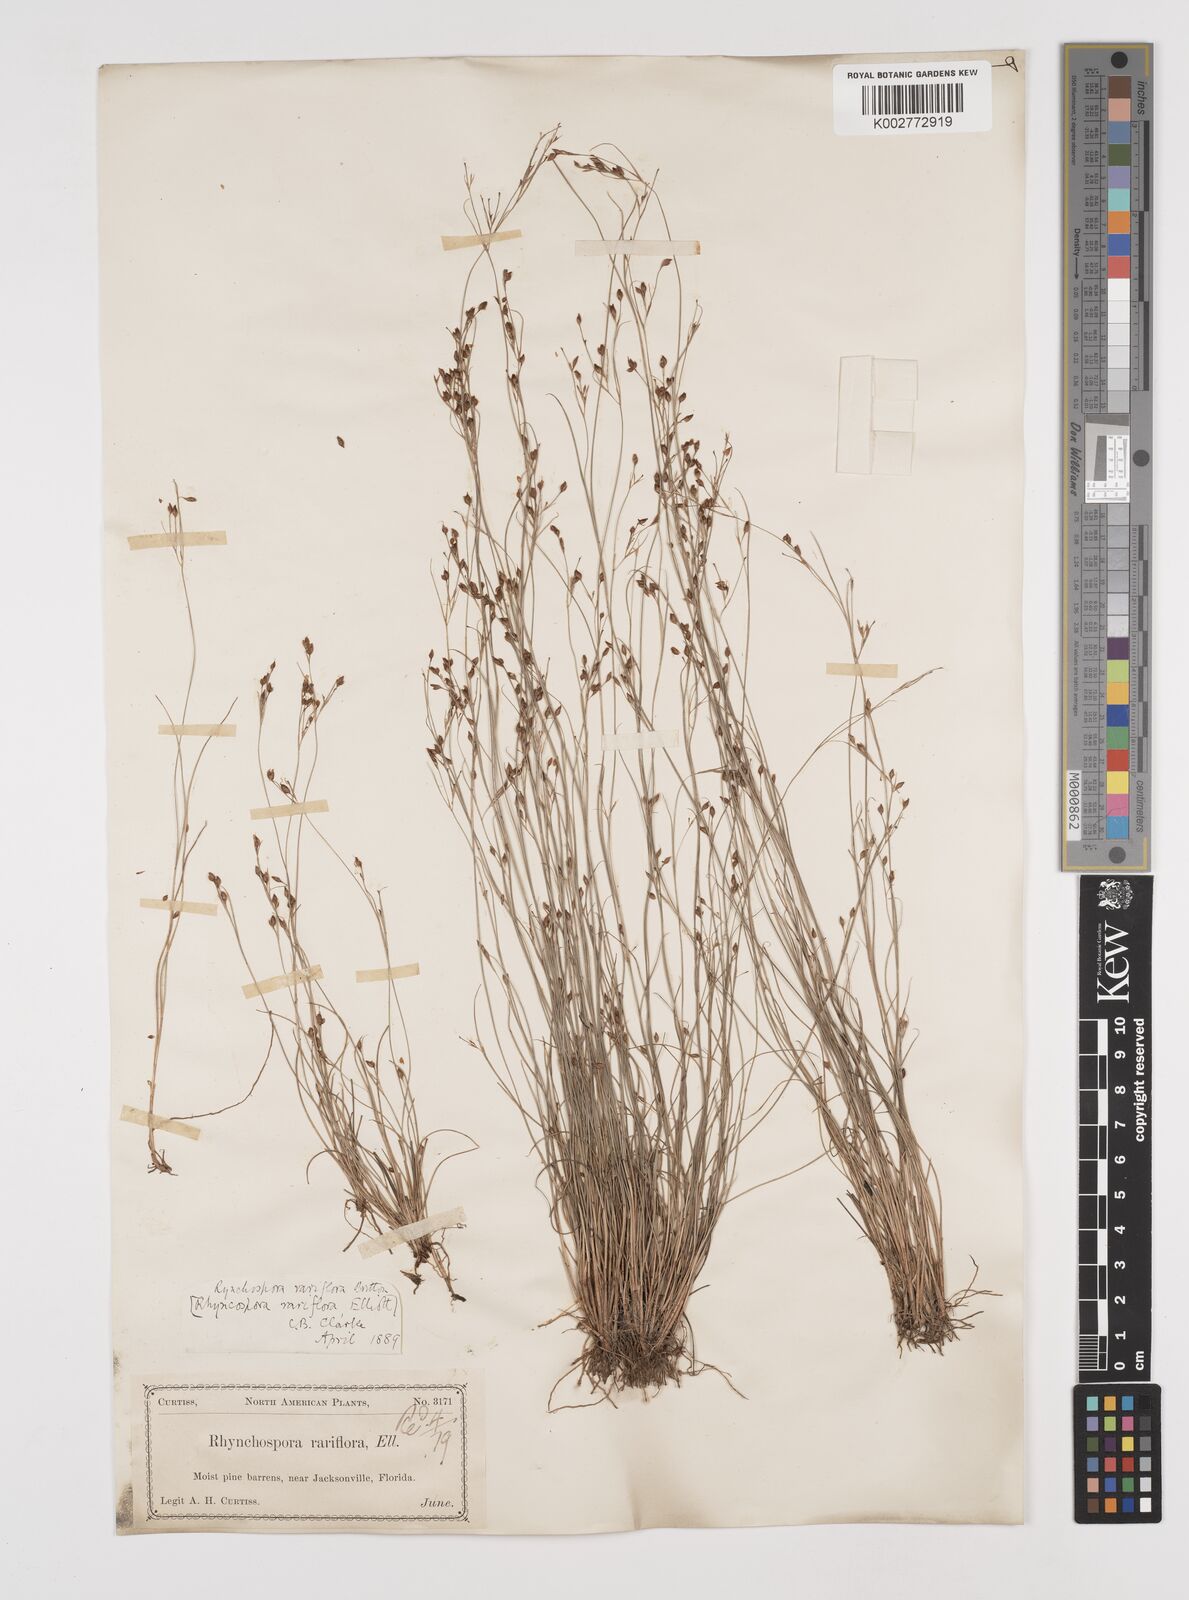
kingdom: Plantae
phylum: Tracheophyta
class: Liliopsida
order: Poales
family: Cyperaceae
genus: Rhynchospora
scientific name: Rhynchospora rariflora
